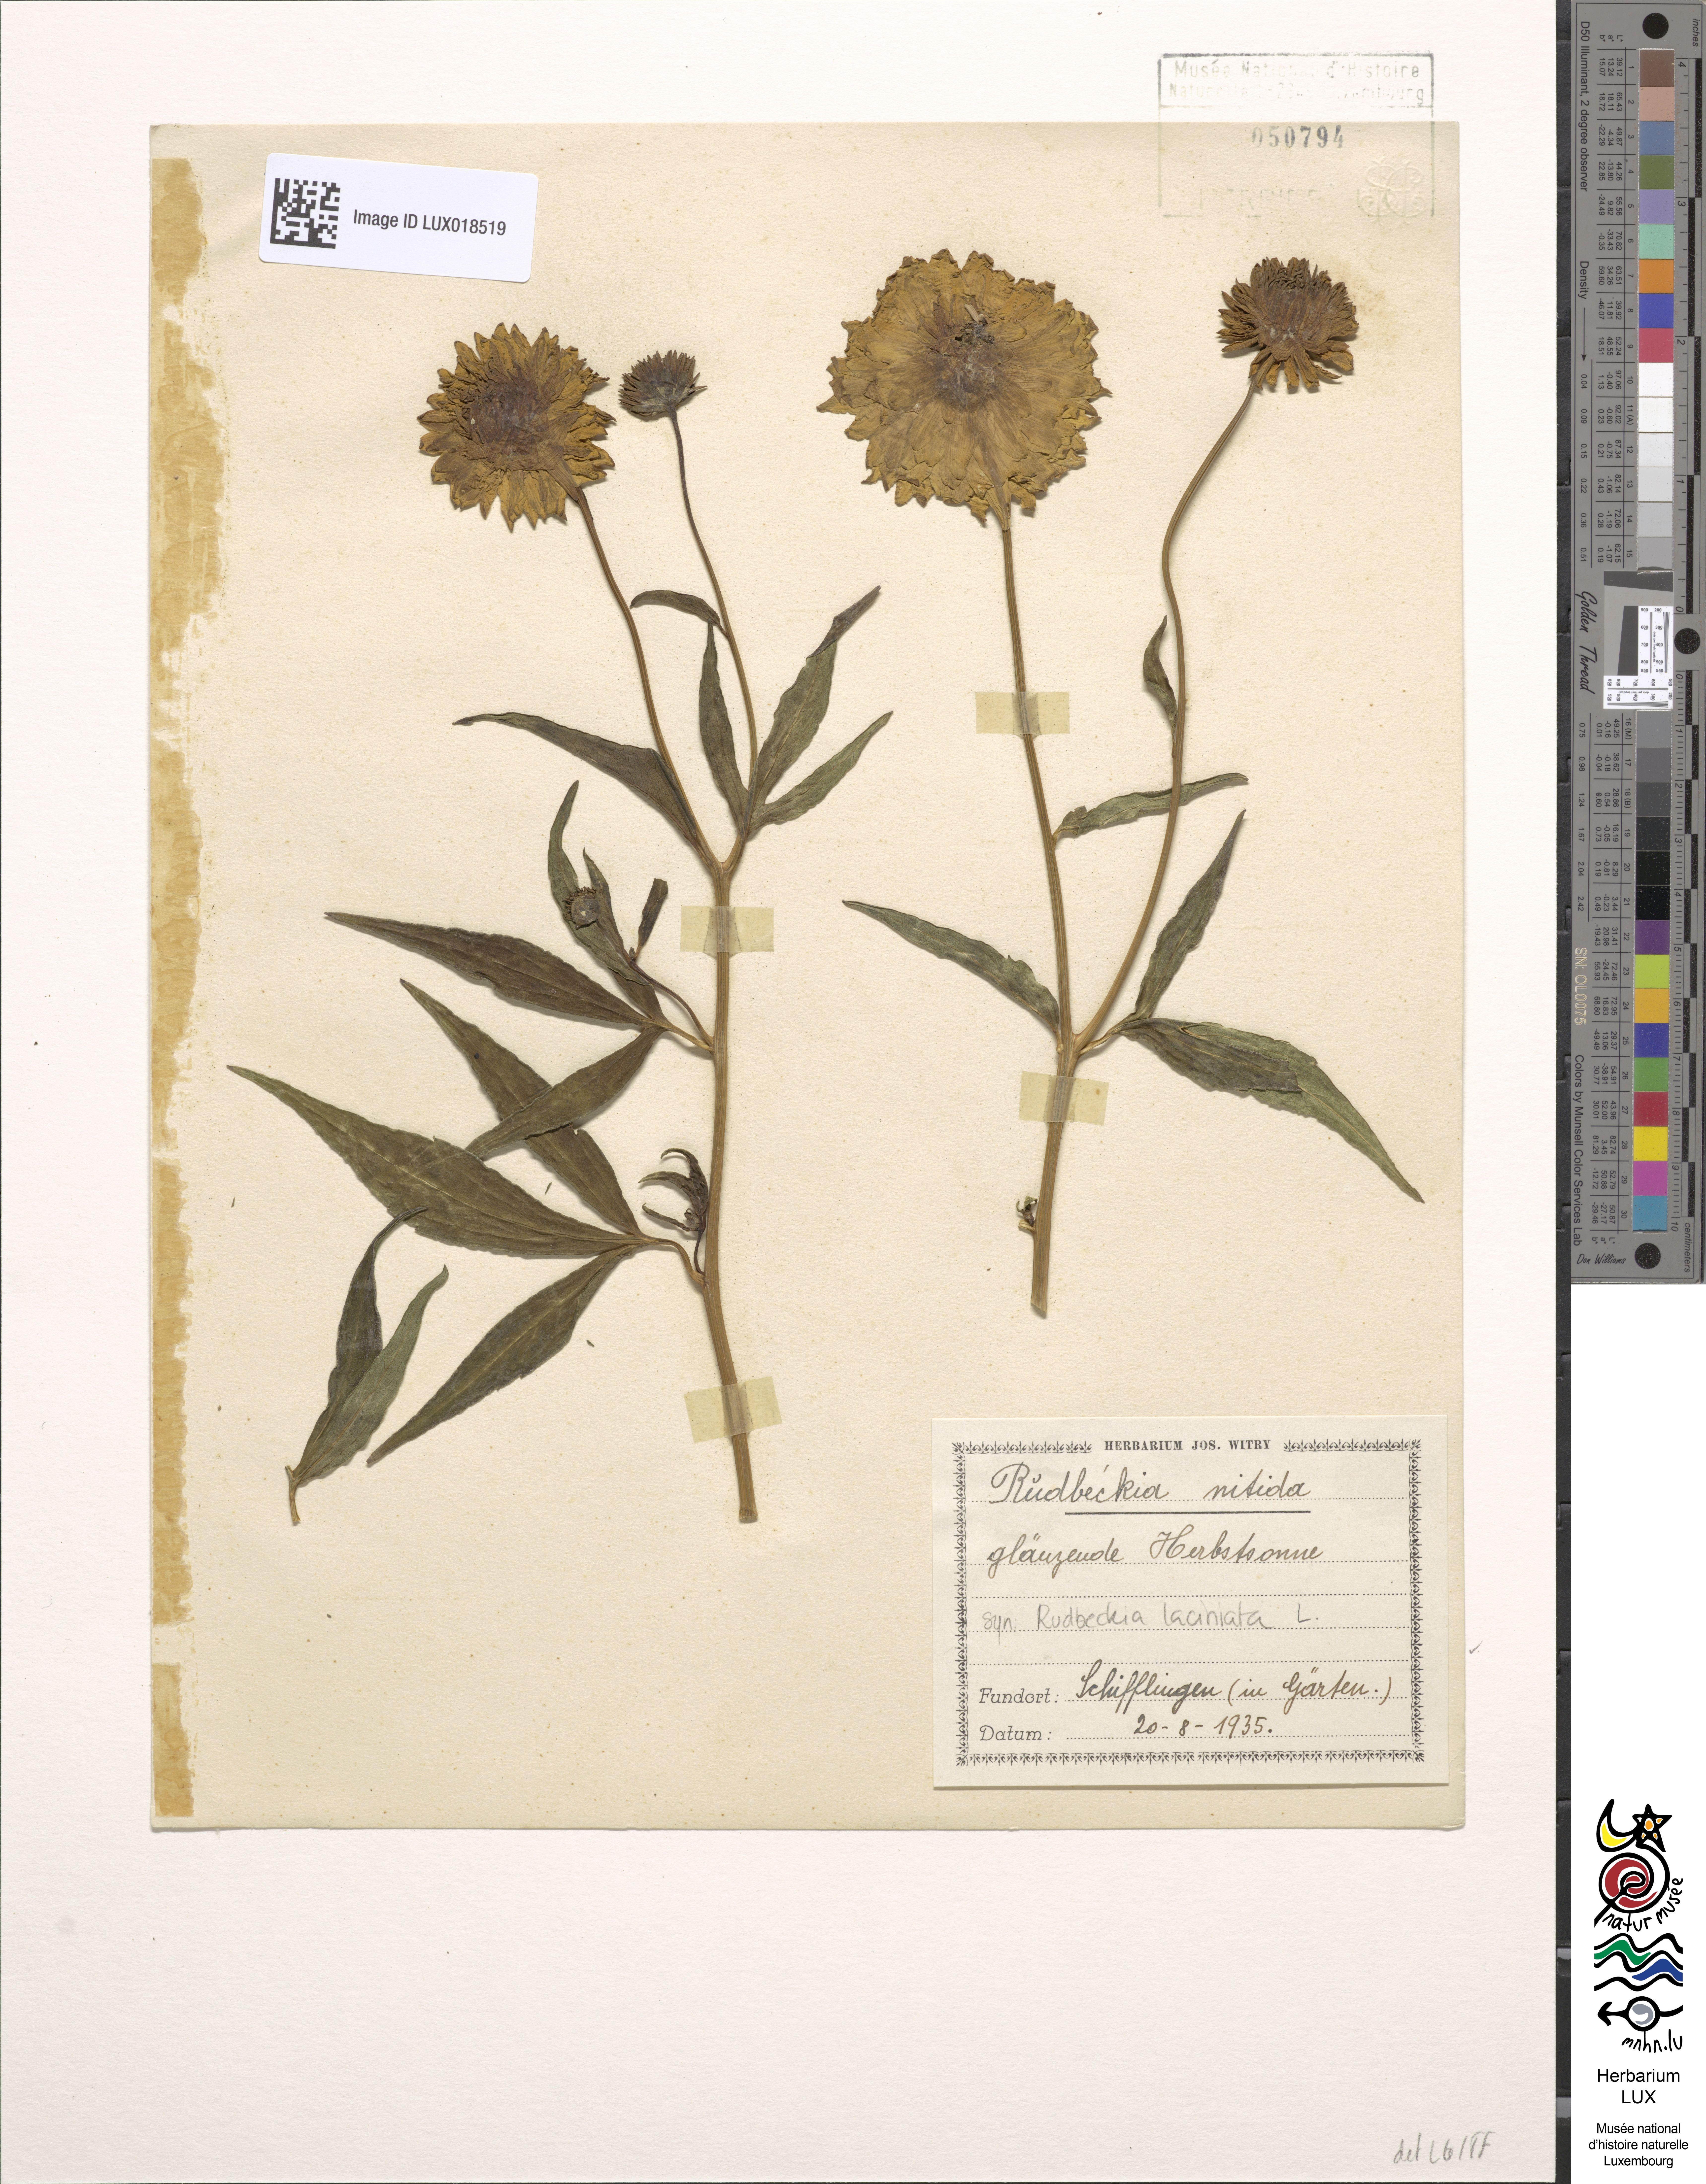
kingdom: Plantae
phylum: Tracheophyta
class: Magnoliopsida
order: Asterales
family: Asteraceae
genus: Rudbeckia
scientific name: Rudbeckia laciniata
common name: Coneflower
